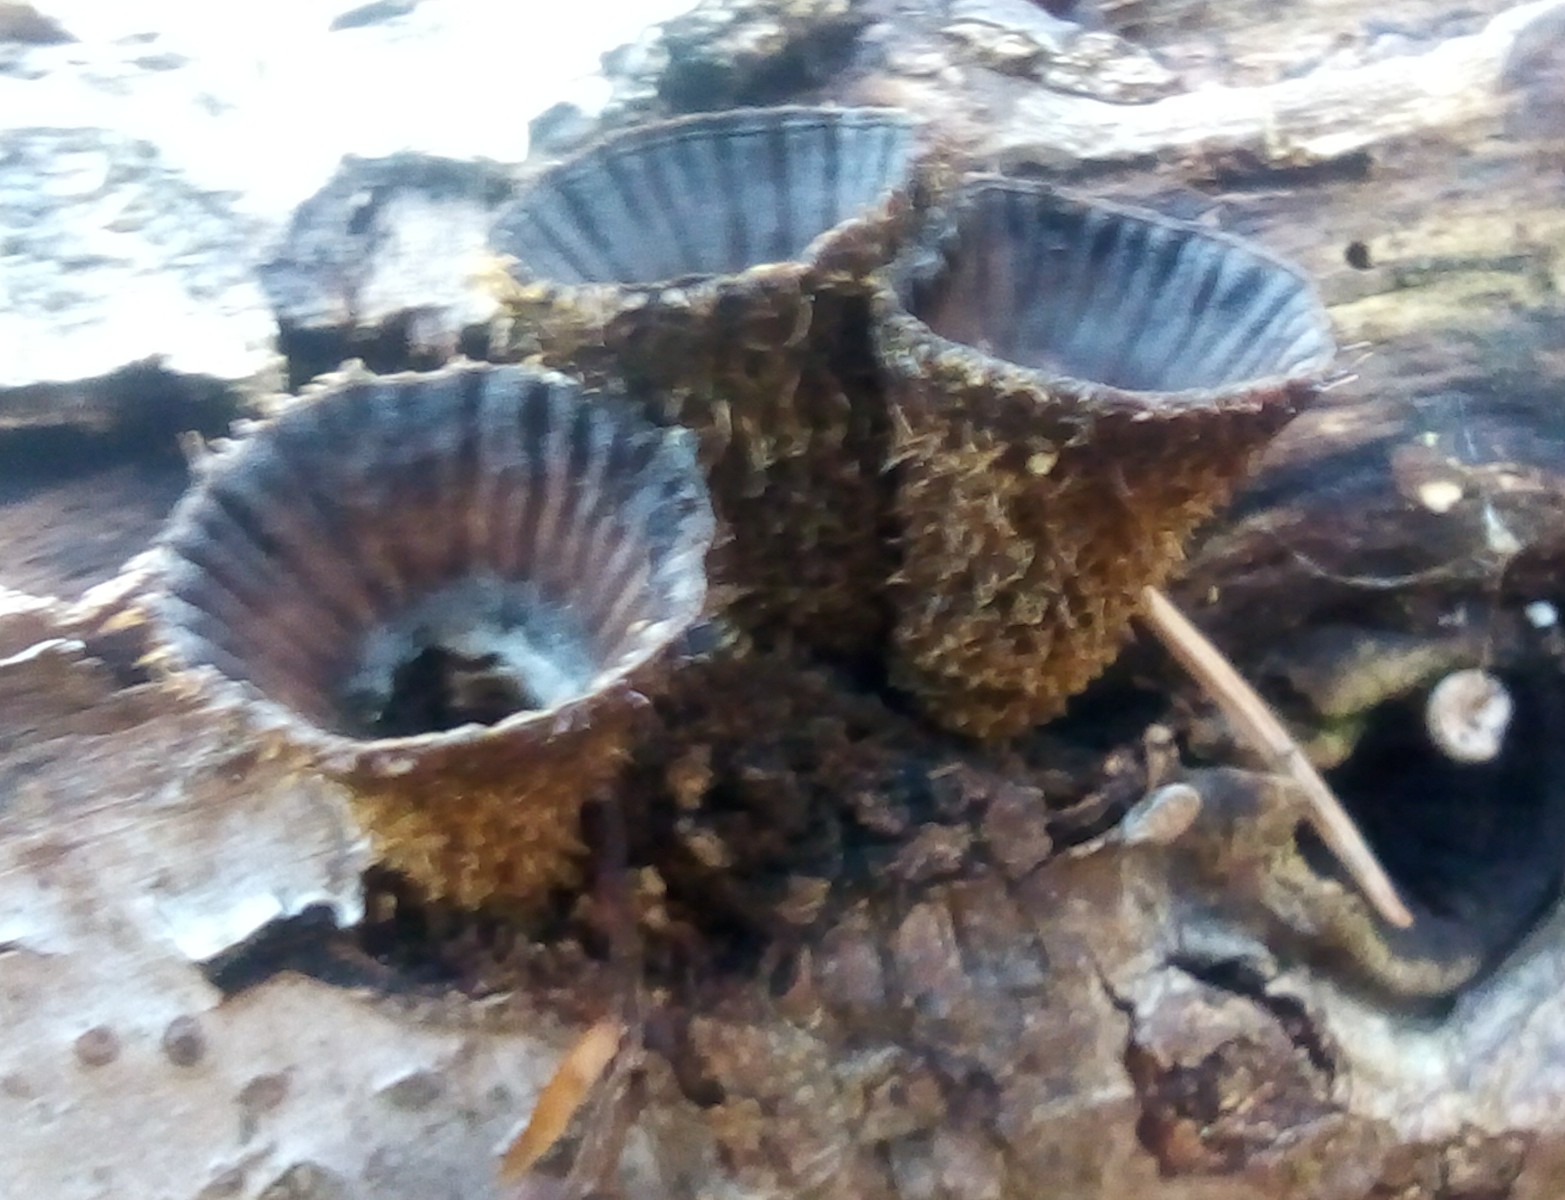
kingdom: Fungi
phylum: Basidiomycota
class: Agaricomycetes
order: Agaricales
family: Agaricaceae
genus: Cyathus
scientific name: Cyathus striatus
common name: stribet redesvamp
